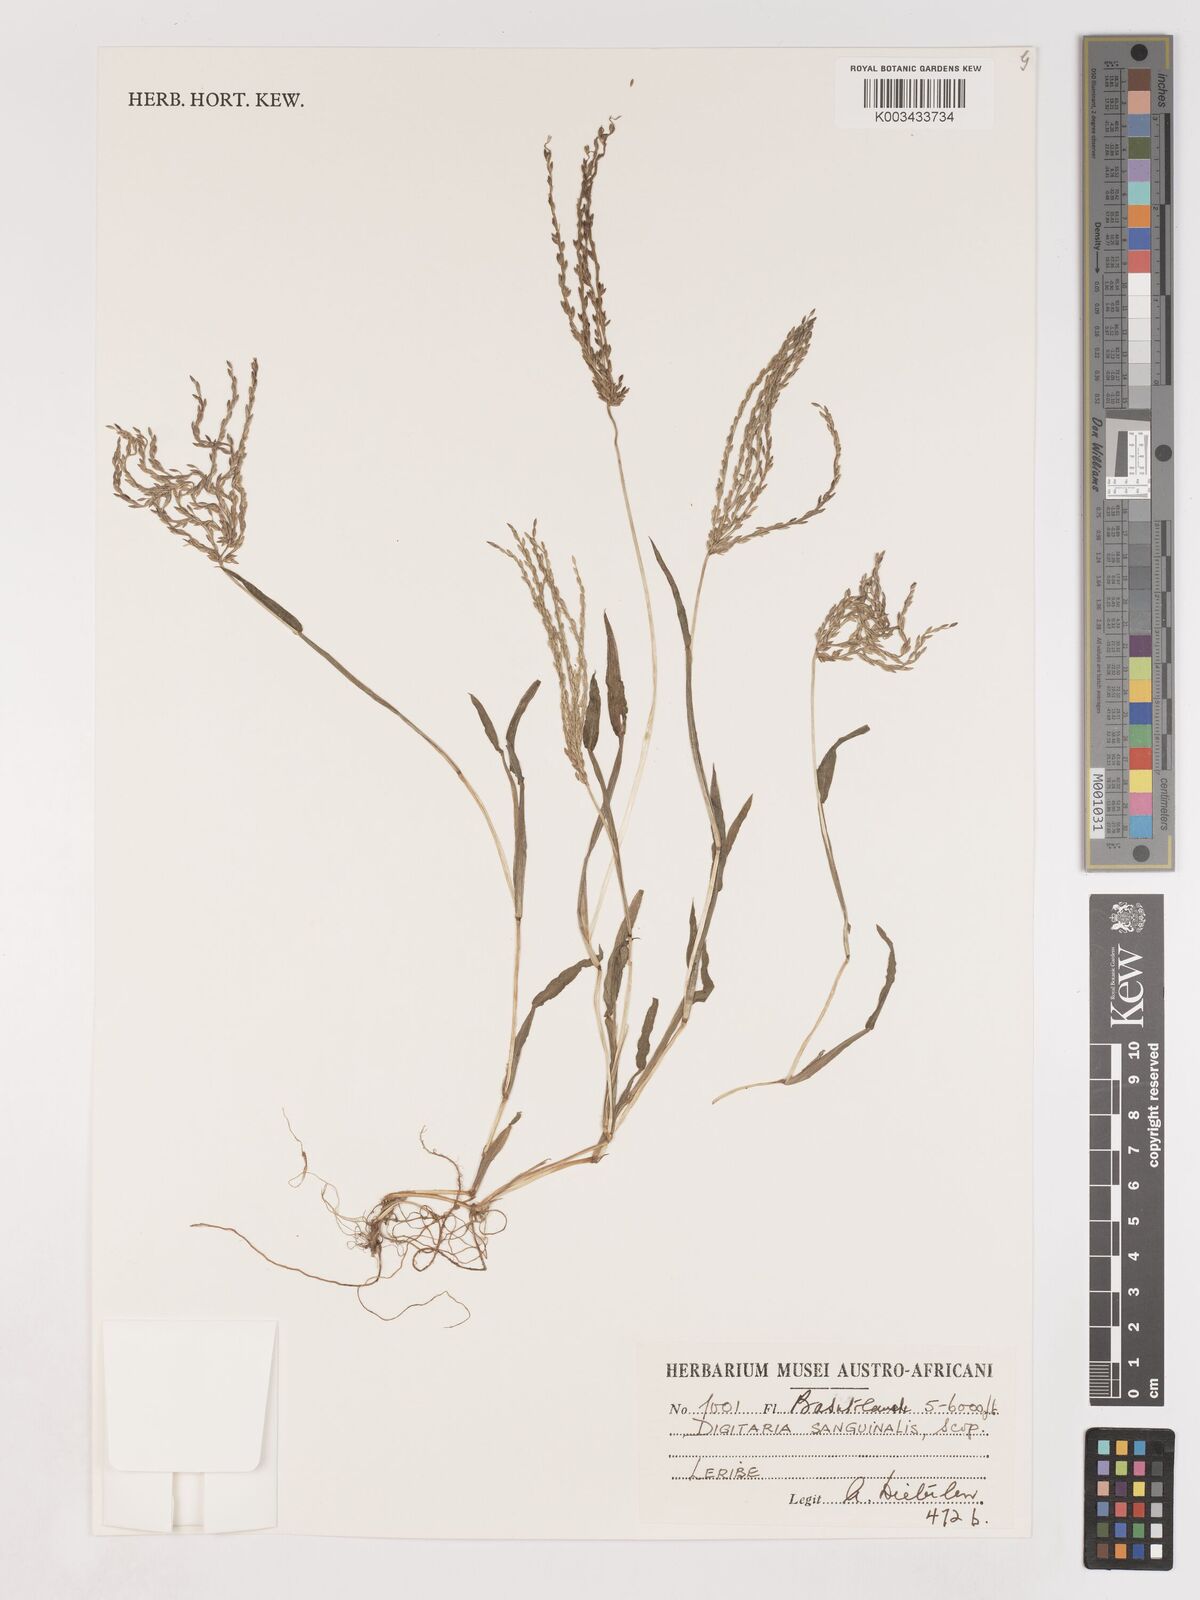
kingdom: Plantae
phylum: Tracheophyta
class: Liliopsida
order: Poales
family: Poaceae
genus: Digitaria
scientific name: Digitaria sanguinalis
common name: Hairy crabgrass
